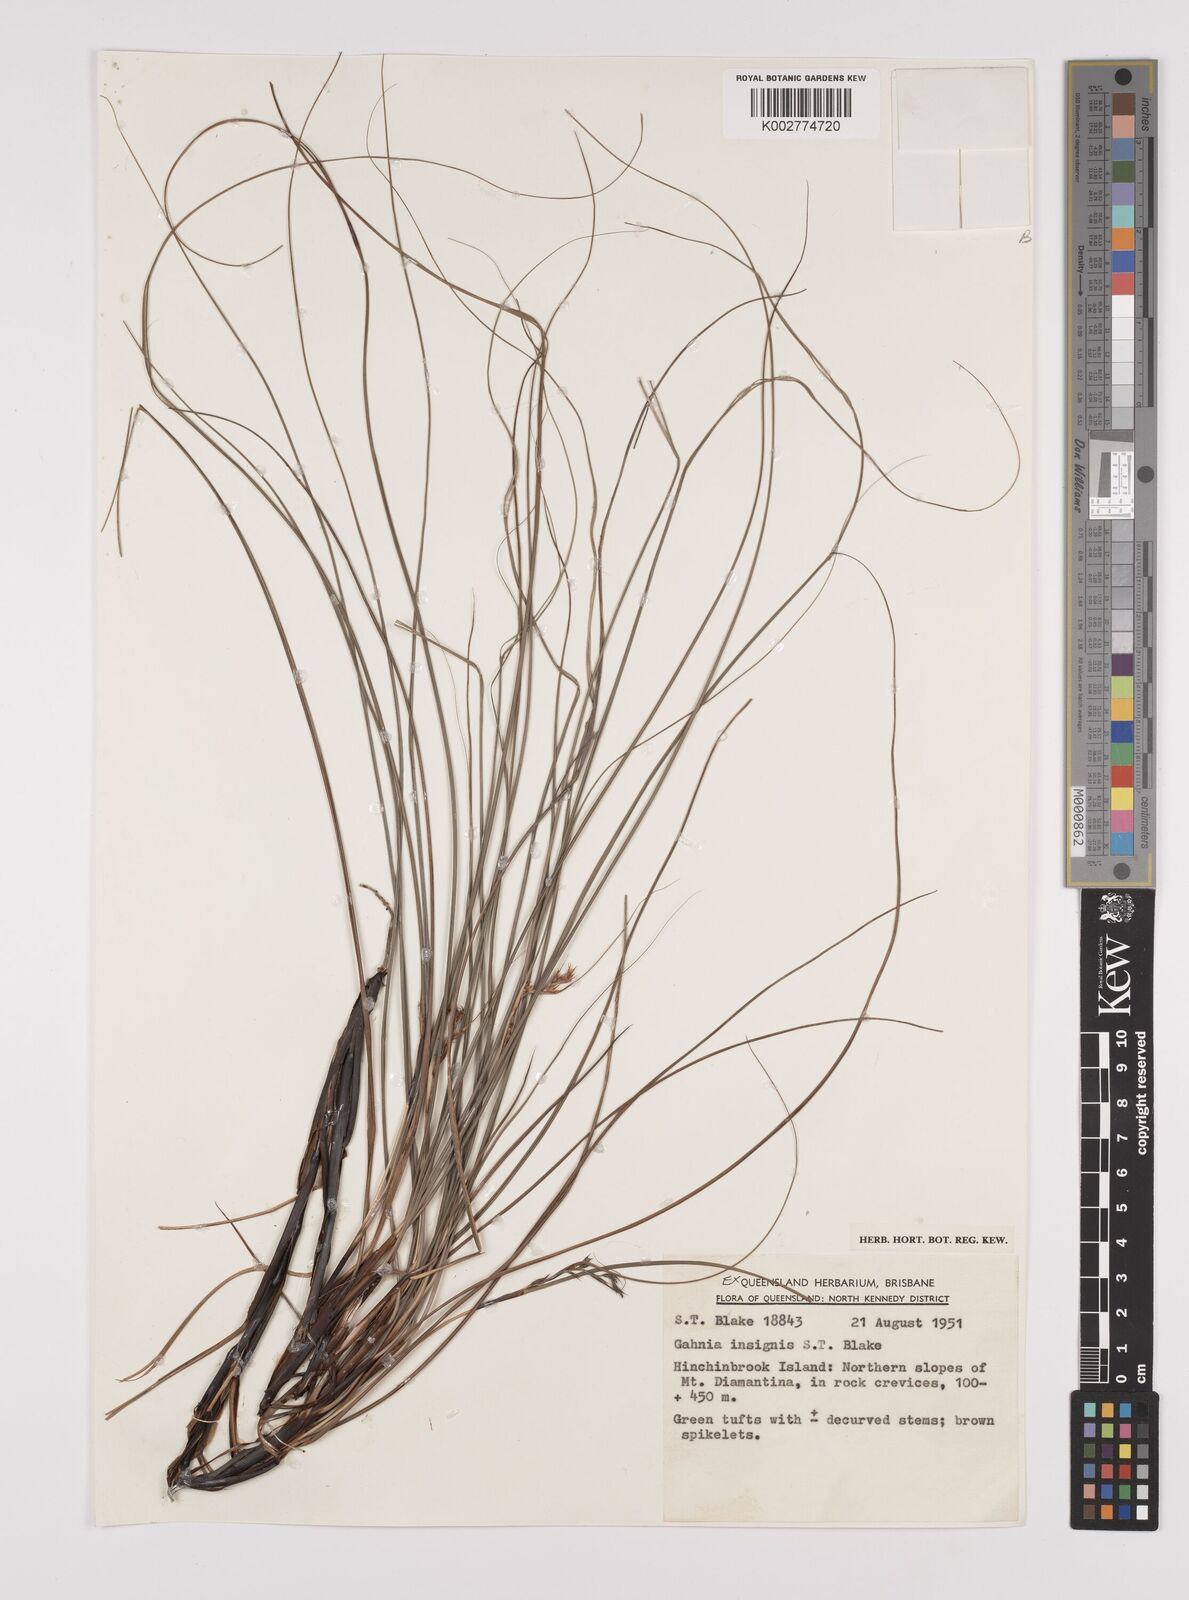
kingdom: Plantae
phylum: Tracheophyta
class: Liliopsida
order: Poales
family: Cyperaceae
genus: Gahnia
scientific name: Gahnia insignis
